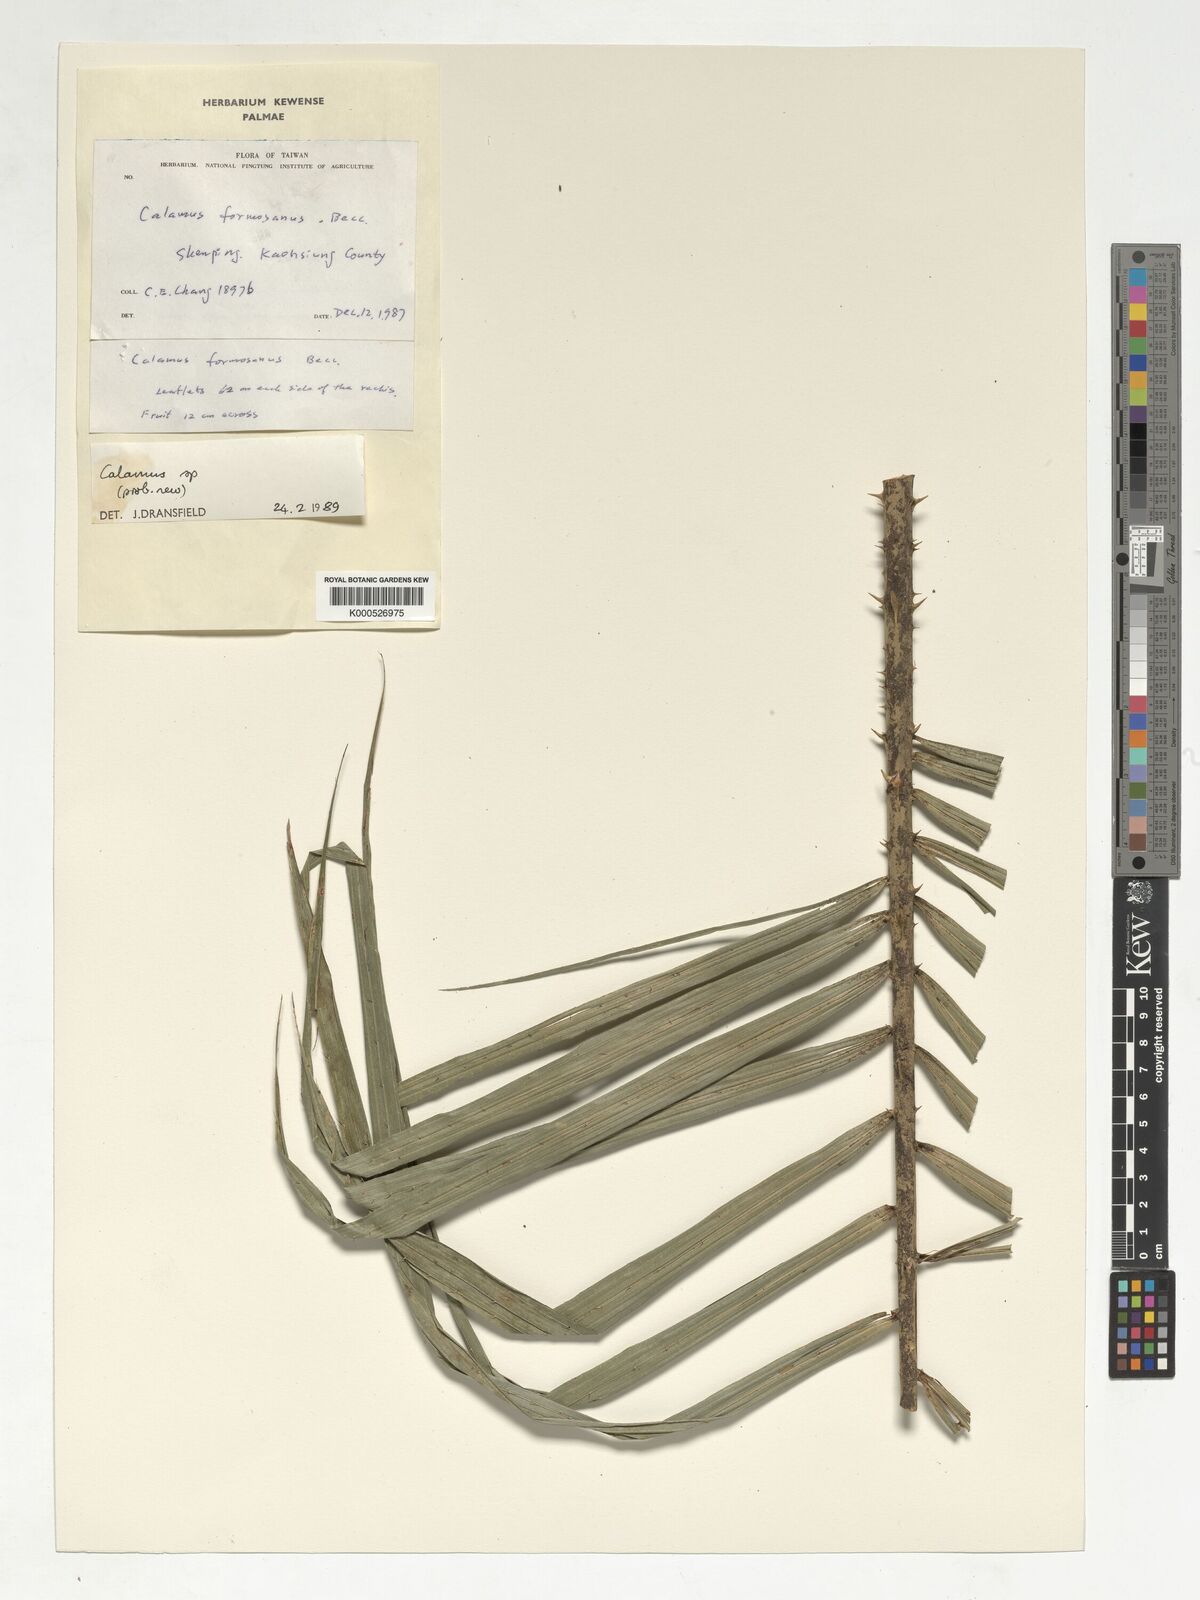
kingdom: Plantae
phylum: Tracheophyta
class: Liliopsida
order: Arecales
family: Arecaceae
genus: Calamus
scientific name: Calamus formosanus
